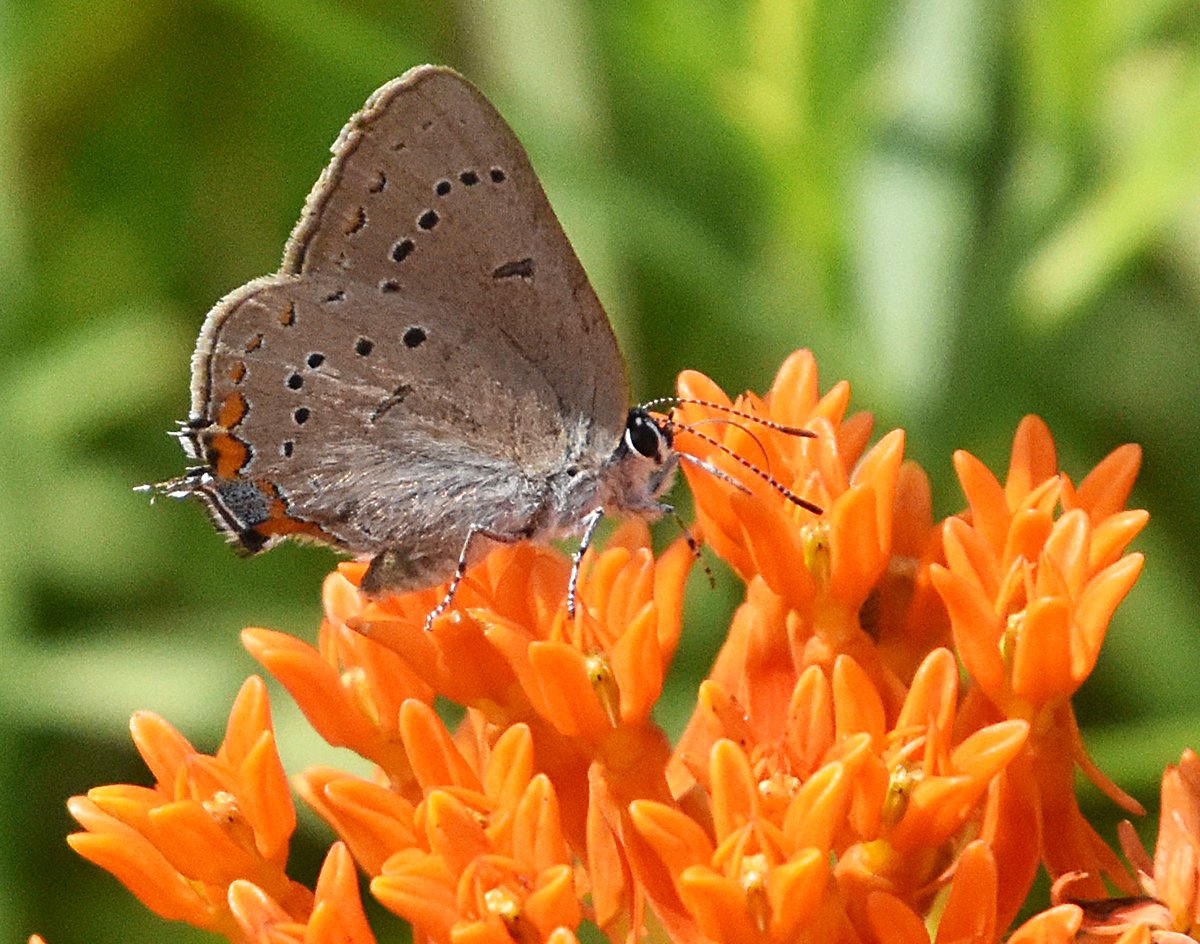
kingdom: Animalia
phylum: Arthropoda
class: Insecta
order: Lepidoptera
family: Lycaenidae
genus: Strymon
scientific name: Strymon acadica
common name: Acadian Hairstreak
